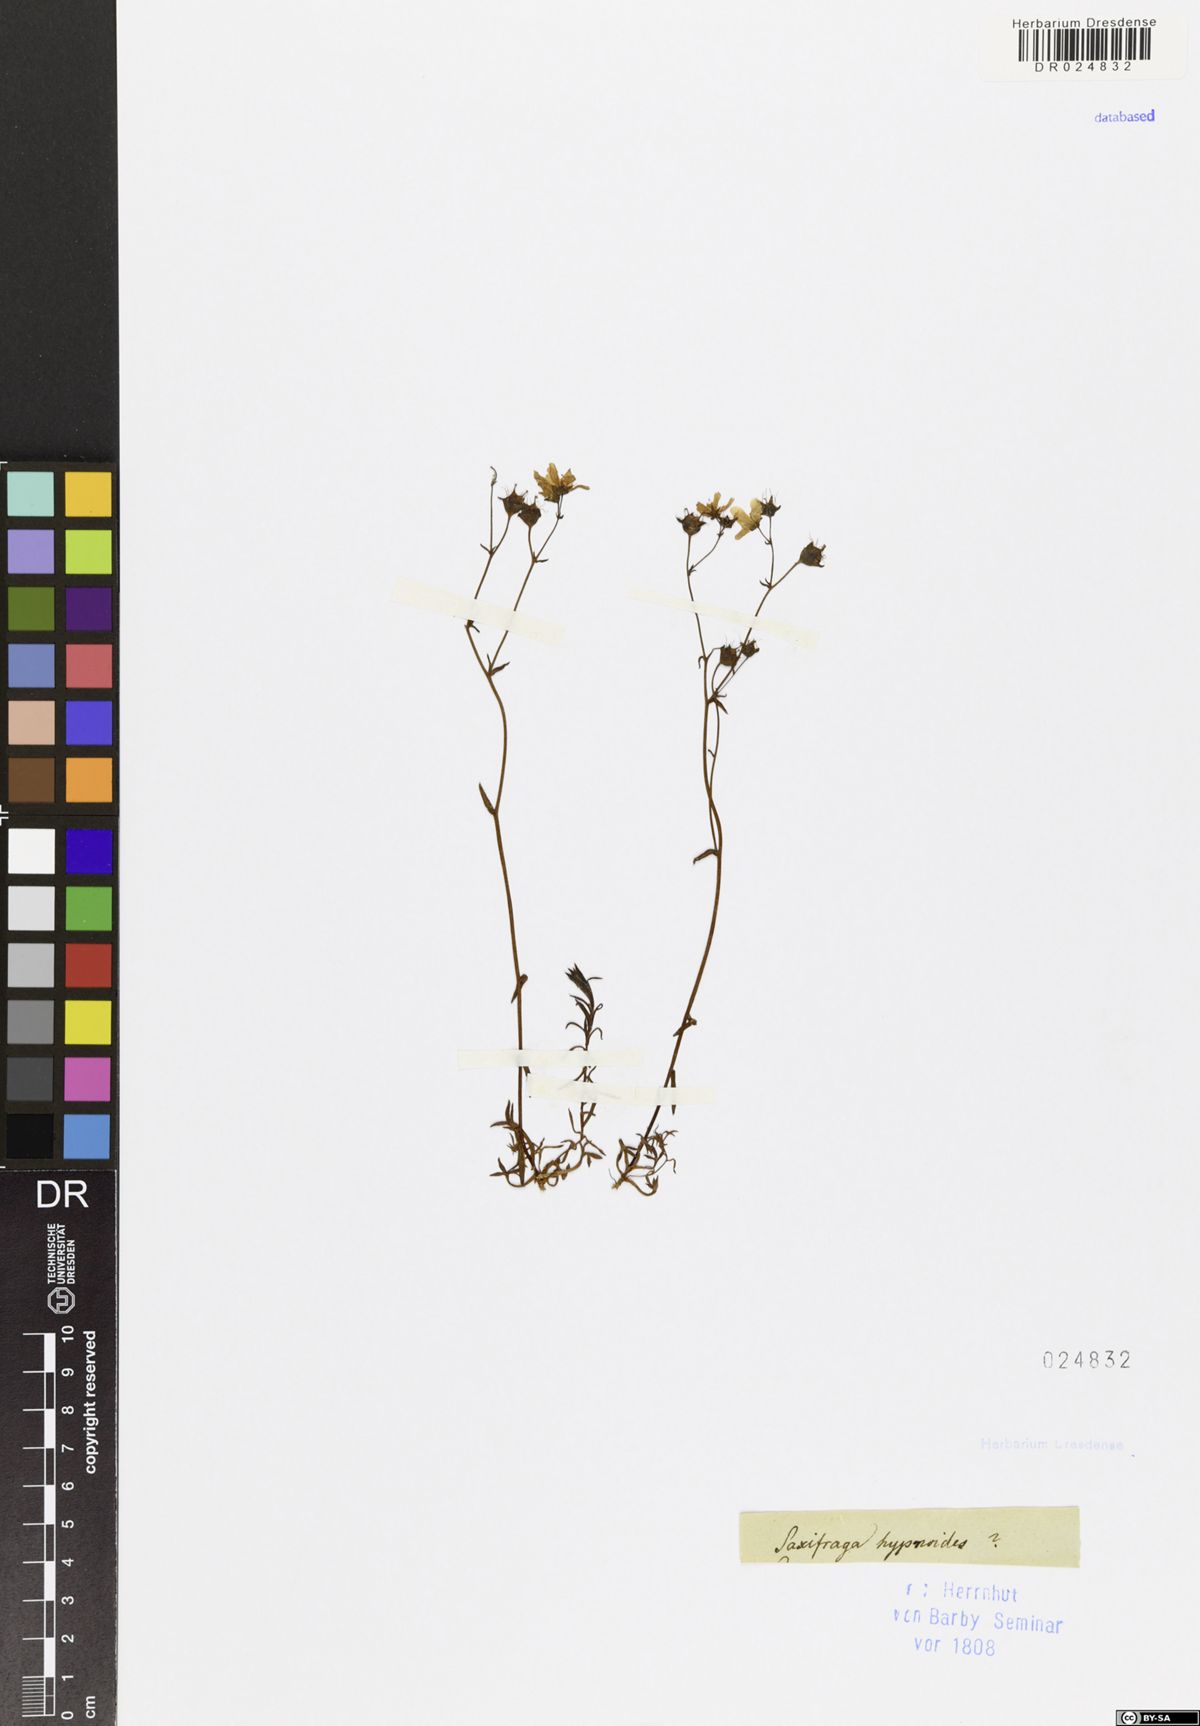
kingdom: Plantae
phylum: Tracheophyta
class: Magnoliopsida
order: Saxifragales
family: Saxifragaceae
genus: Saxifraga
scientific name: Saxifraga hypnoides
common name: Mossy saxifrage
